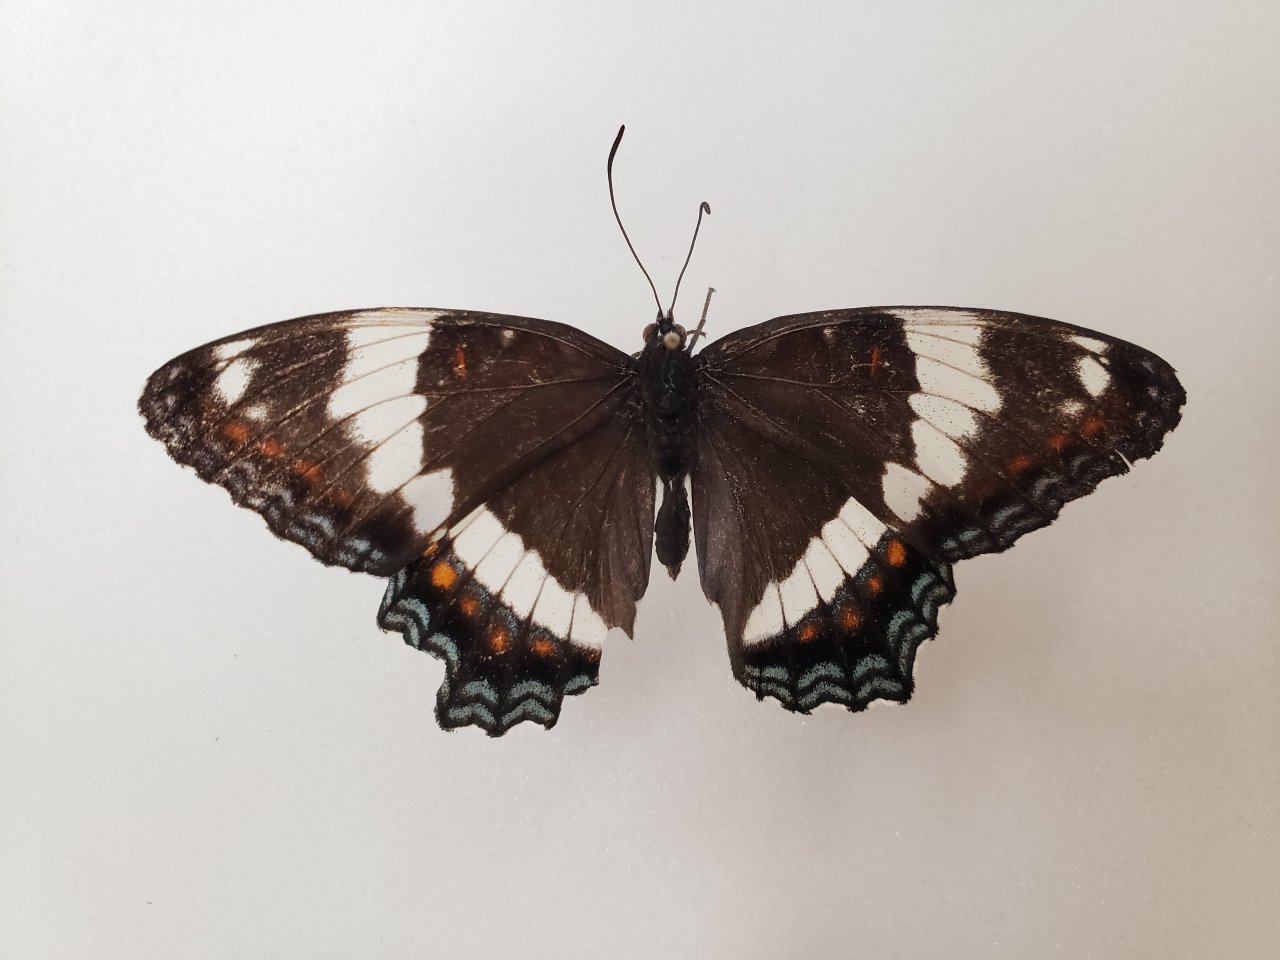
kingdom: Animalia
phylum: Arthropoda
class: Insecta
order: Lepidoptera
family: Nymphalidae
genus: Limenitis
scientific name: Limenitis arthemis
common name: Red-spotted Admiral
